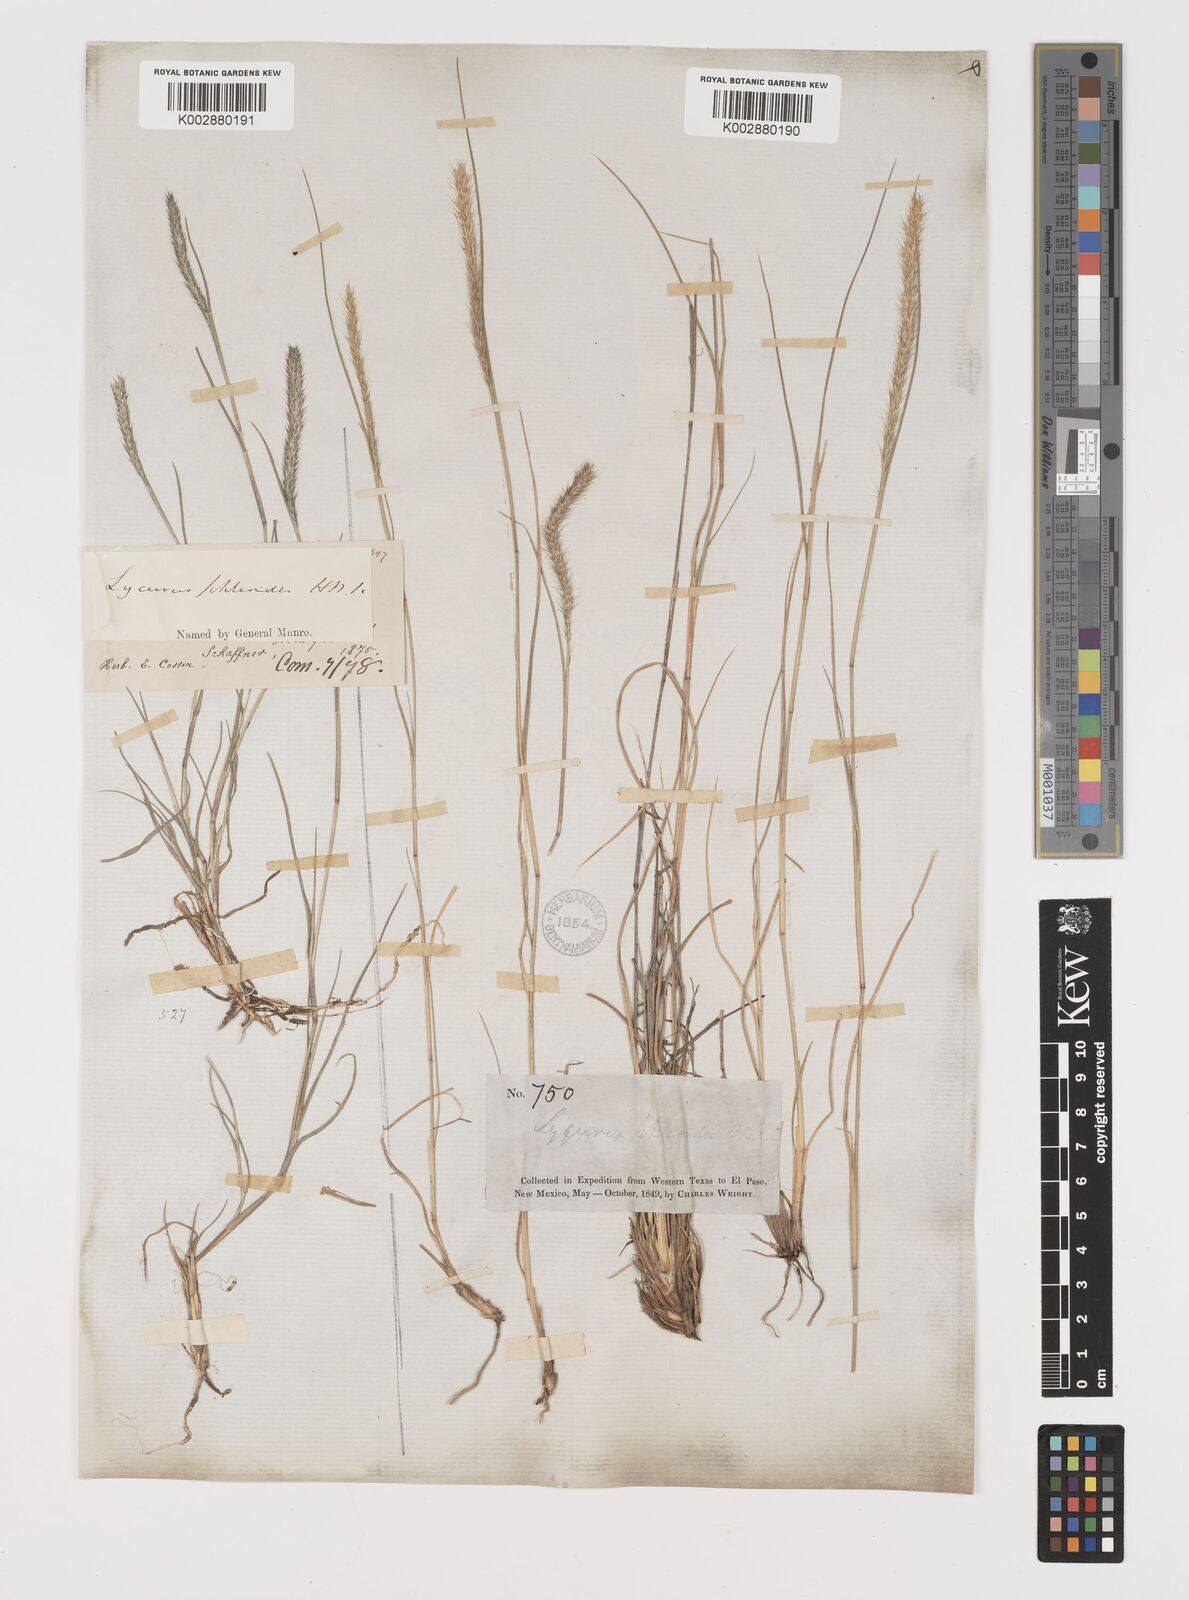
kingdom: Plantae
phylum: Tracheophyta
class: Liliopsida
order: Poales
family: Poaceae
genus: Muhlenbergia
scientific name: Muhlenbergia alopecuroides
